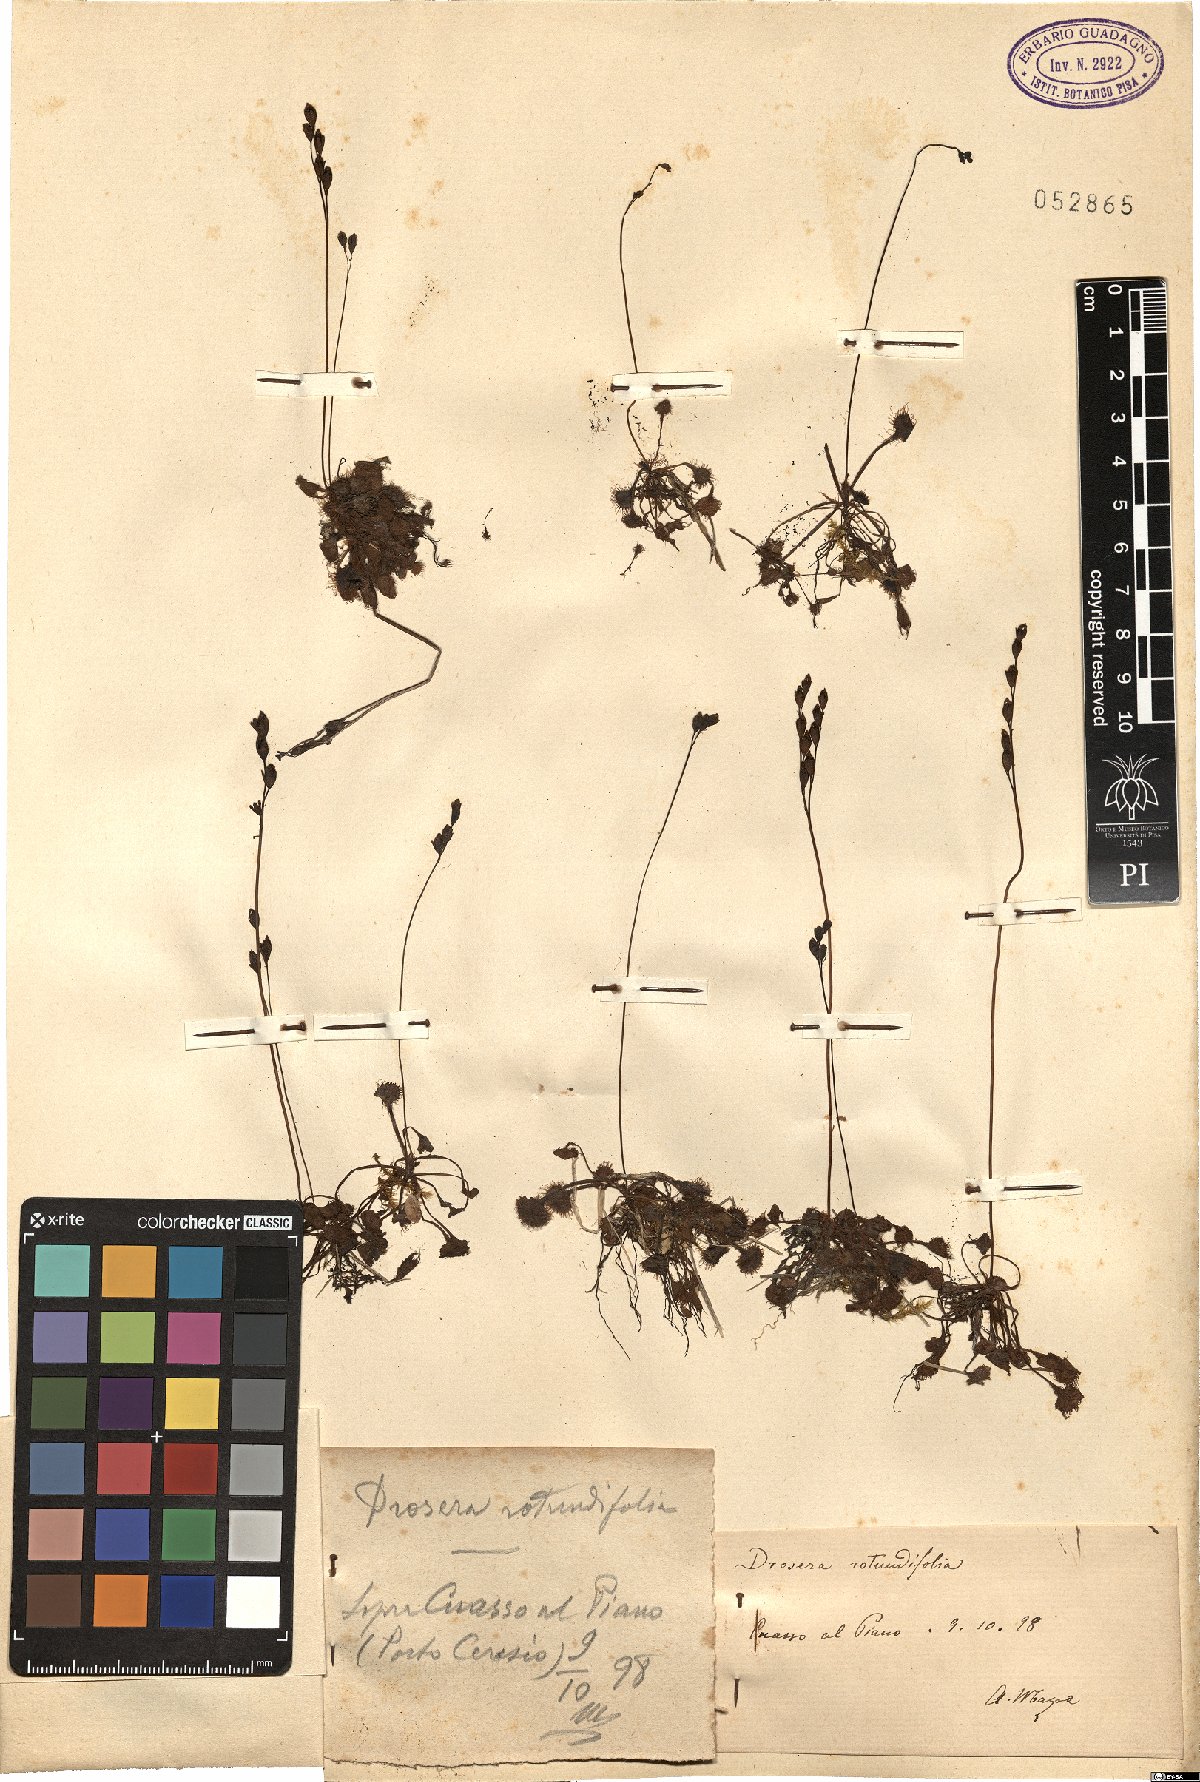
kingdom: Plantae
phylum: Tracheophyta
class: Magnoliopsida
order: Caryophyllales
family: Droseraceae
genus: Drosera
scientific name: Drosera rotundifolia
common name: Round-leaved sundew
